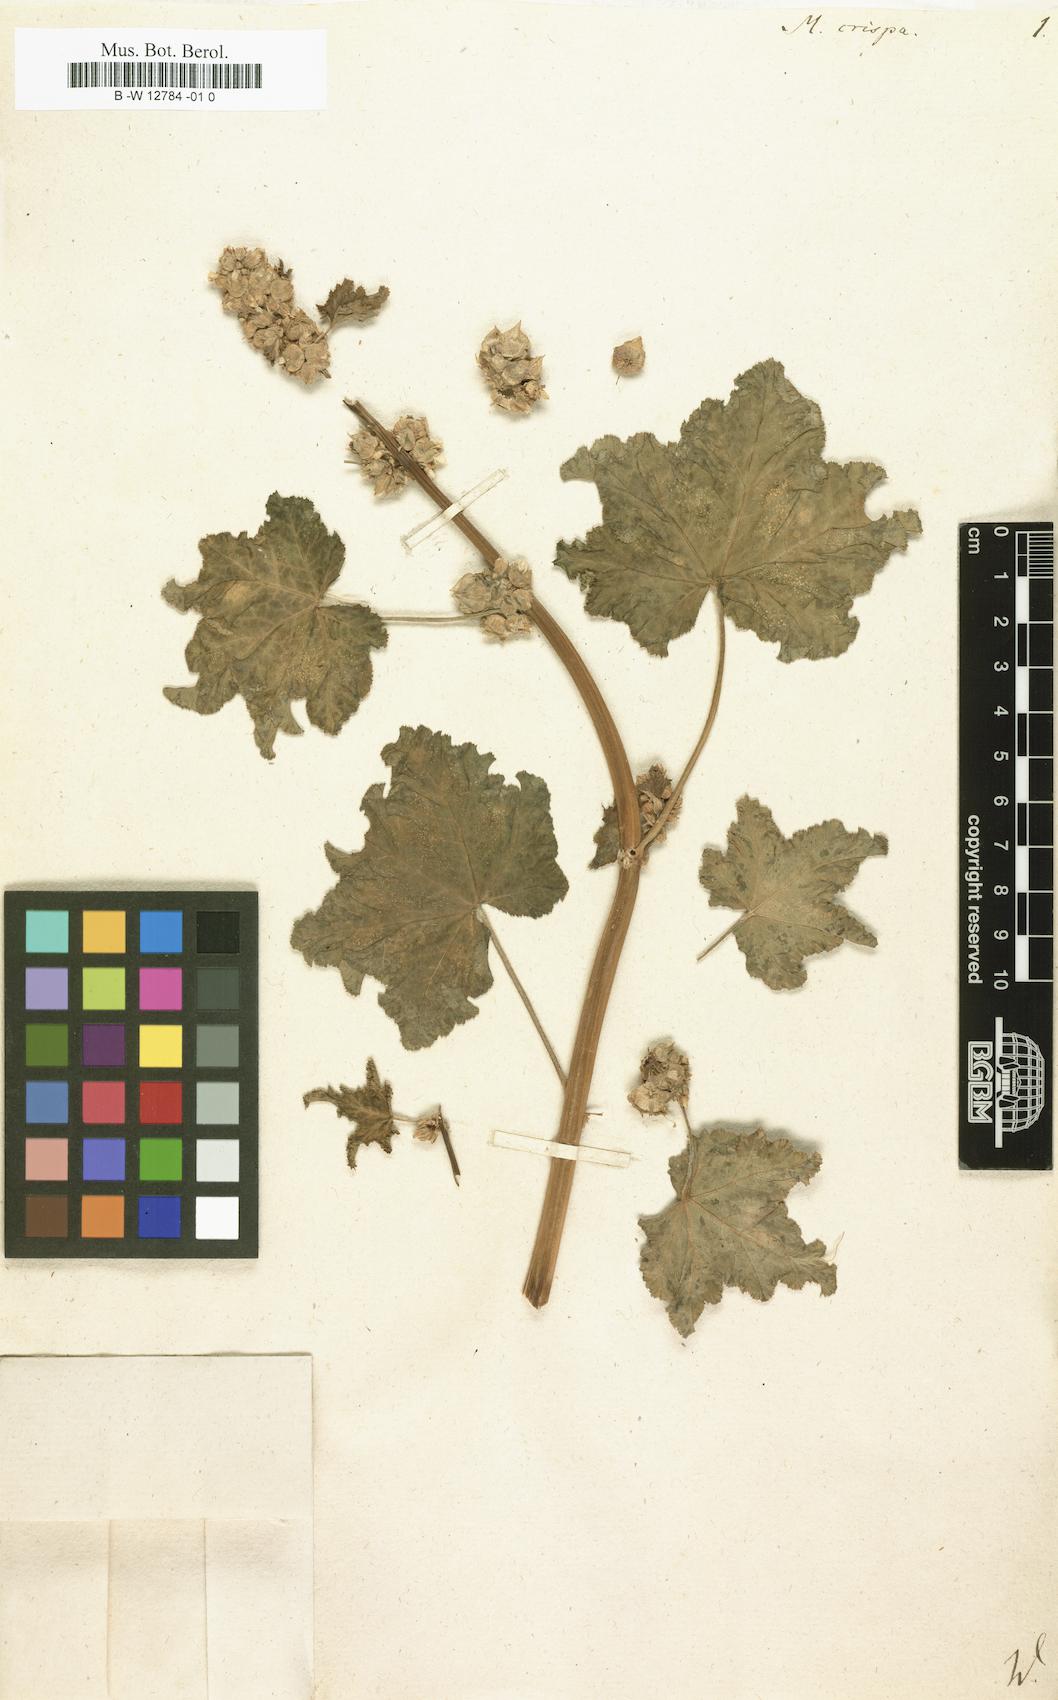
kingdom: Plantae
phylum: Tracheophyta
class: Magnoliopsida
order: Malvales
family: Malvaceae
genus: Malva
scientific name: Malva verticillata
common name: Chinese mallow
